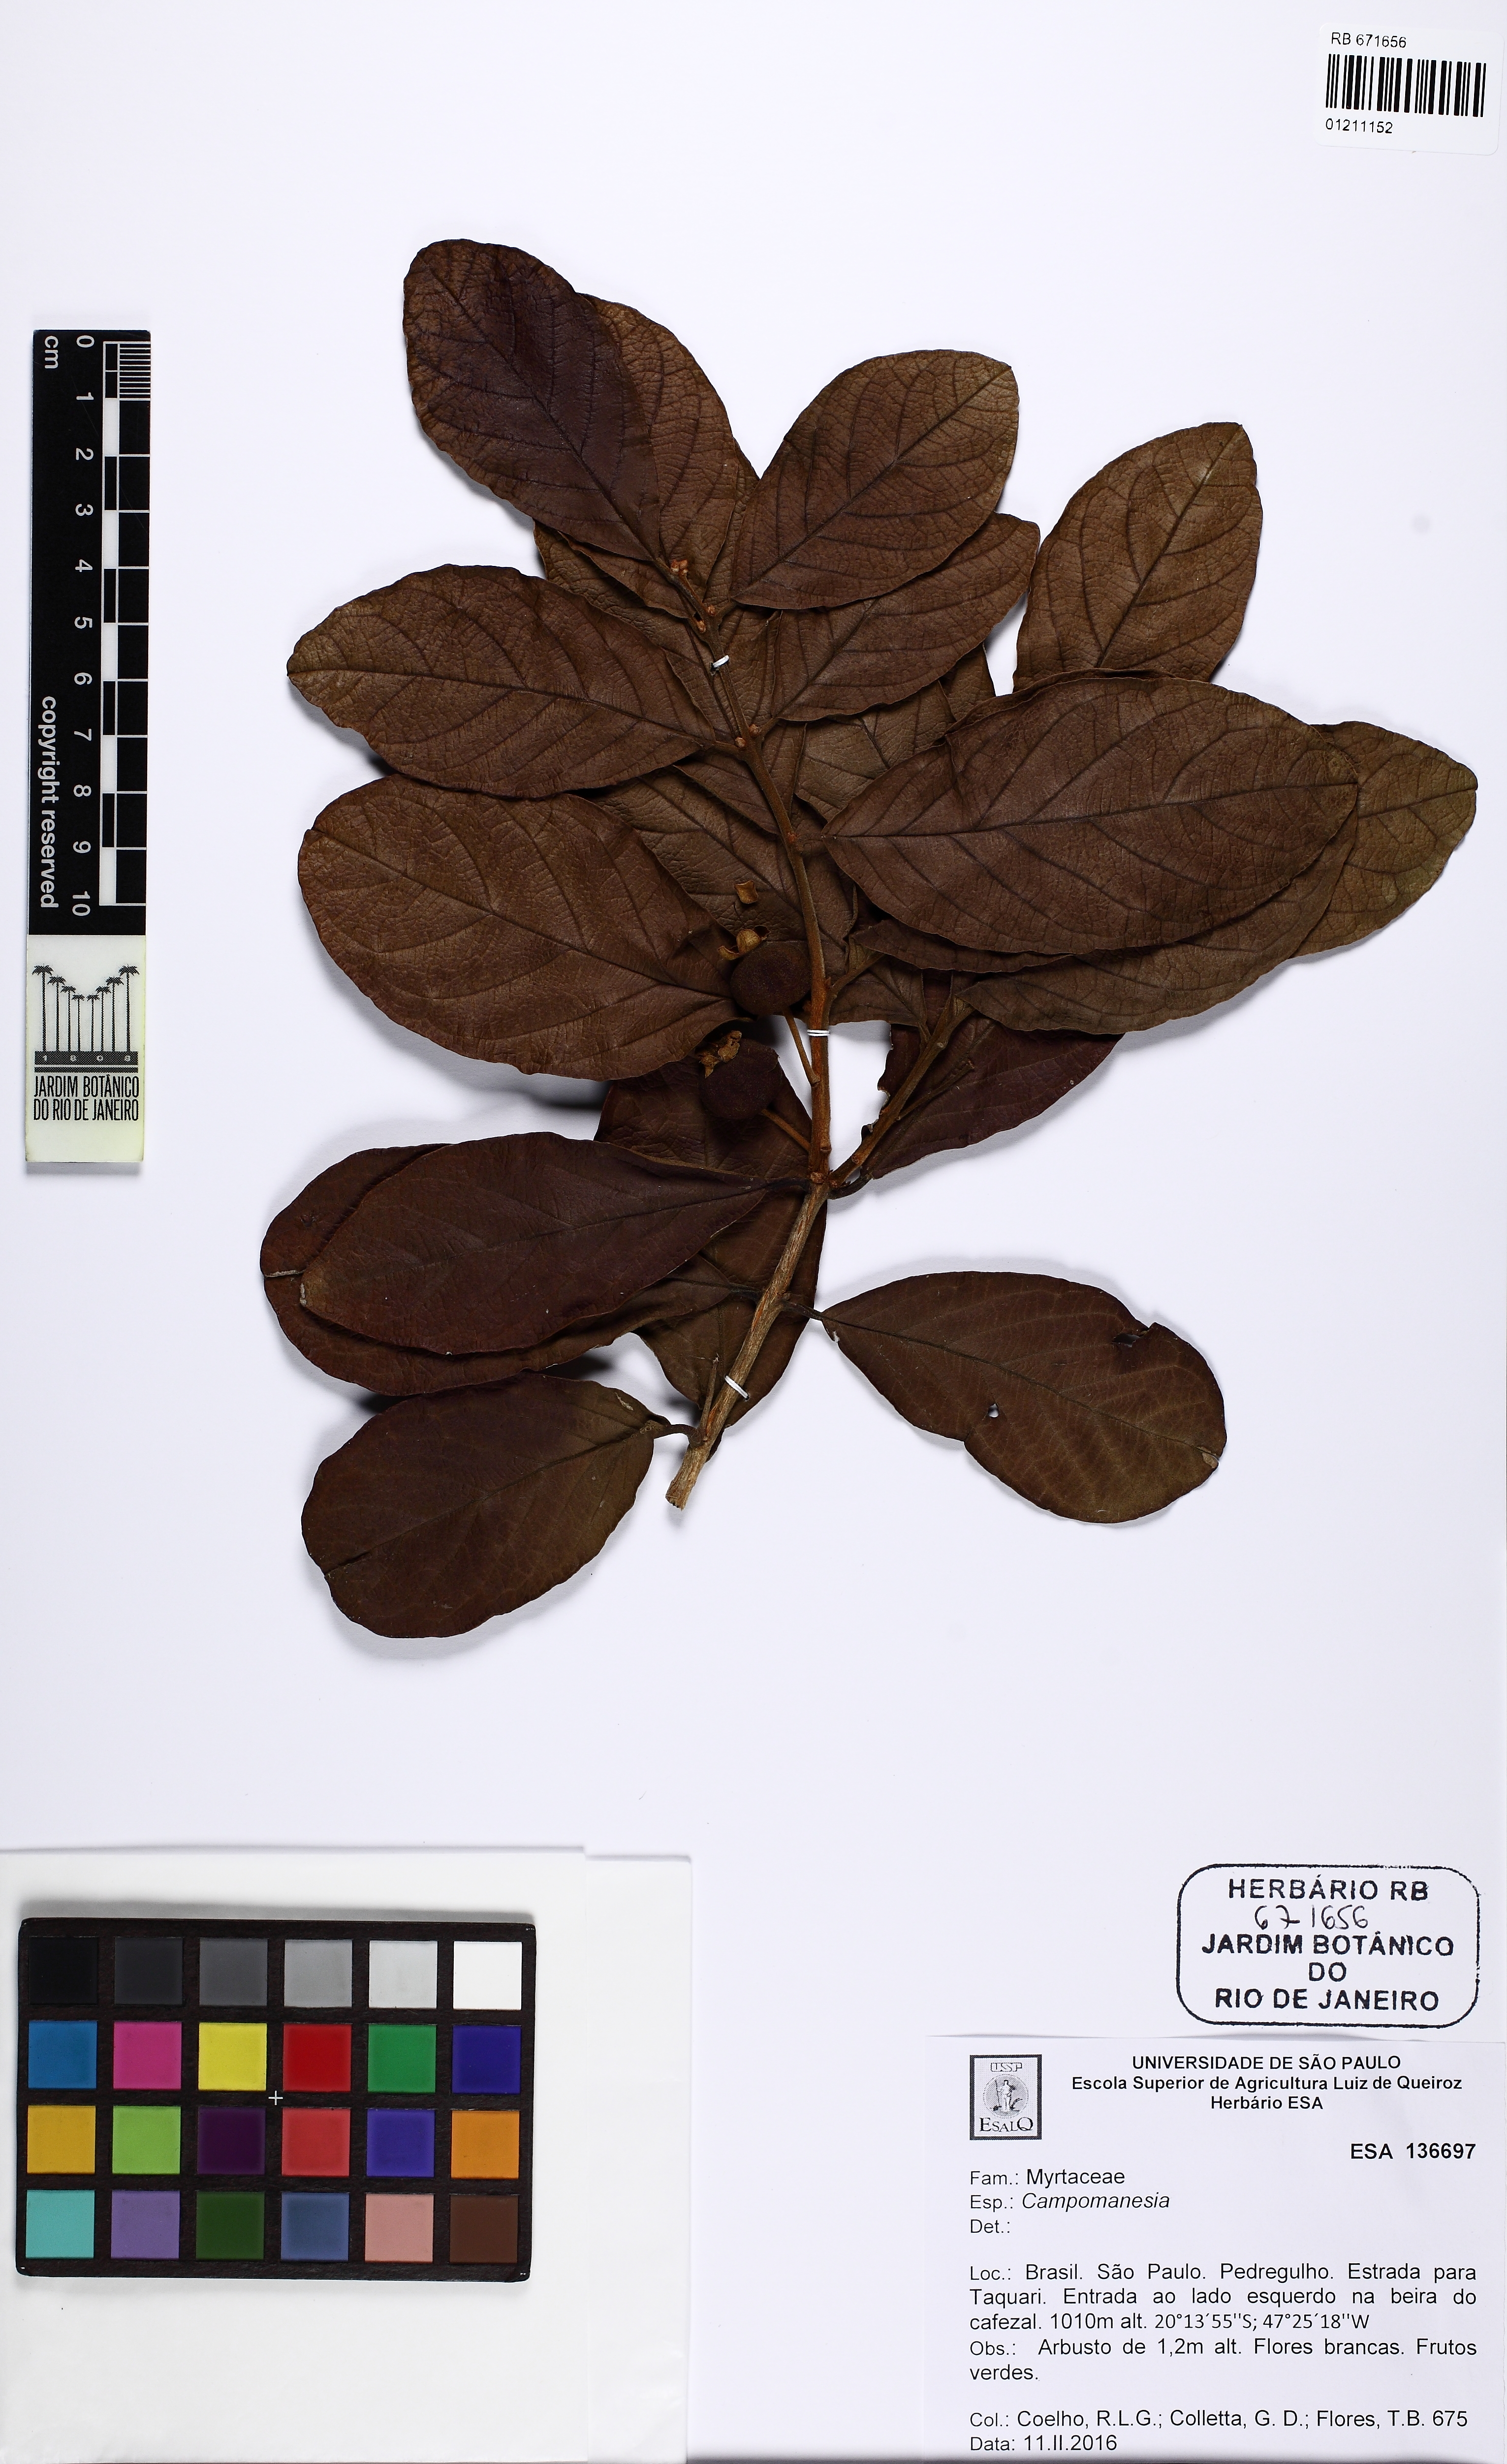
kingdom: Plantae
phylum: Tracheophyta
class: Magnoliopsida
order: Myrtales
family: Myrtaceae
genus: Campomanesia
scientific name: Campomanesia
